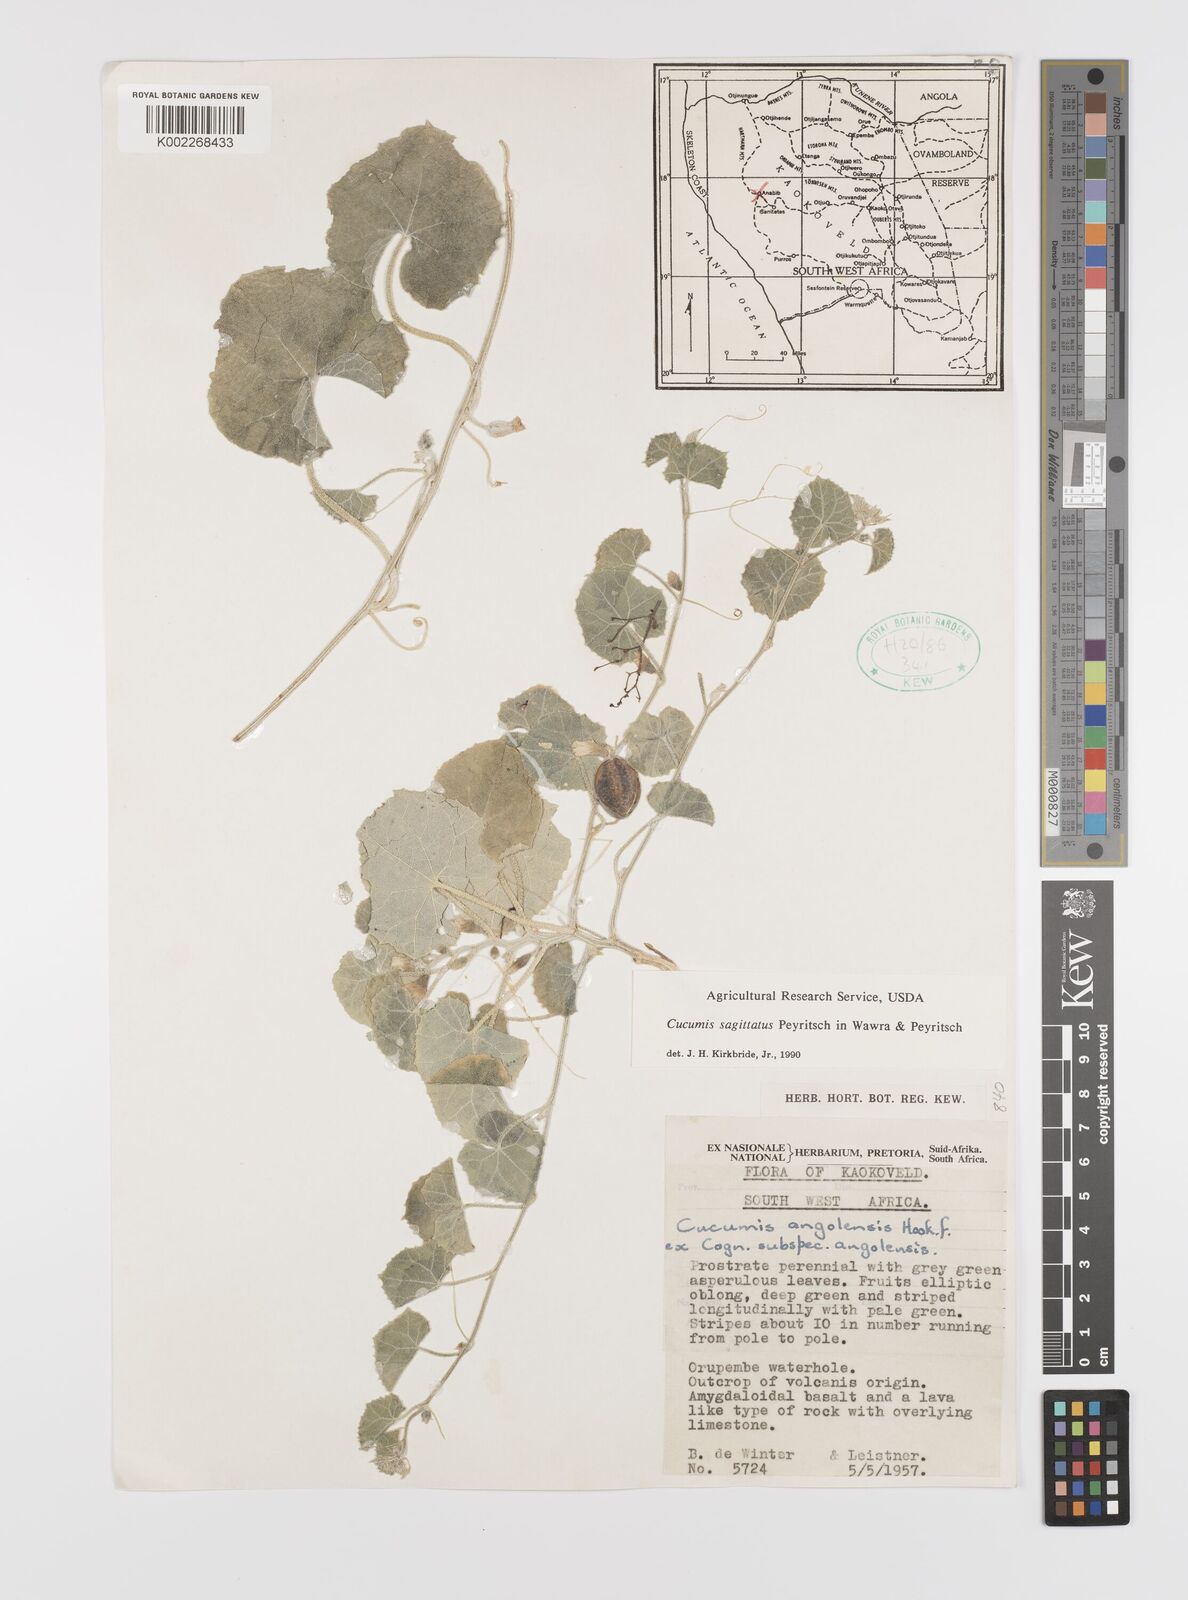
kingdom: Plantae
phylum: Tracheophyta
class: Magnoliopsida
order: Cucurbitales
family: Cucurbitaceae
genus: Cucumis
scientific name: Cucumis sagittatus
